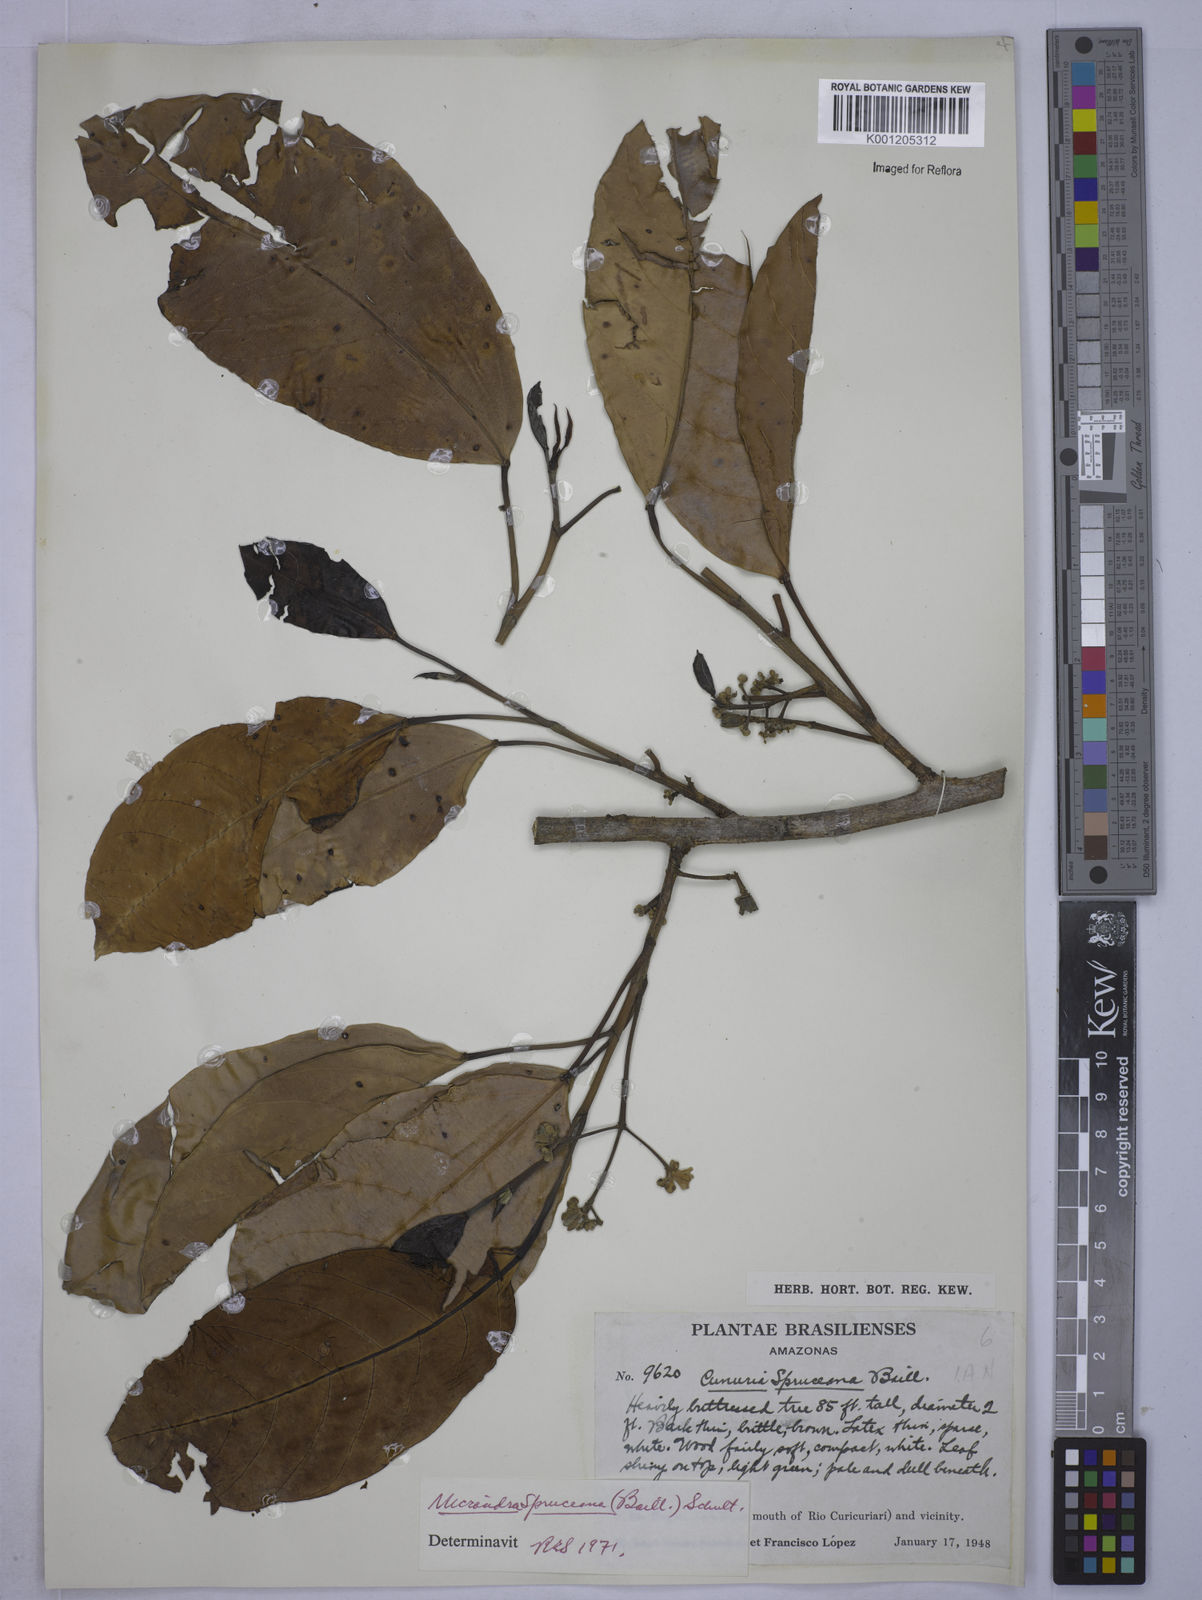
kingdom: Plantae
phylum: Tracheophyta
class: Magnoliopsida
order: Malpighiales
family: Euphorbiaceae
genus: Micrandra
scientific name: Micrandra spruceana
